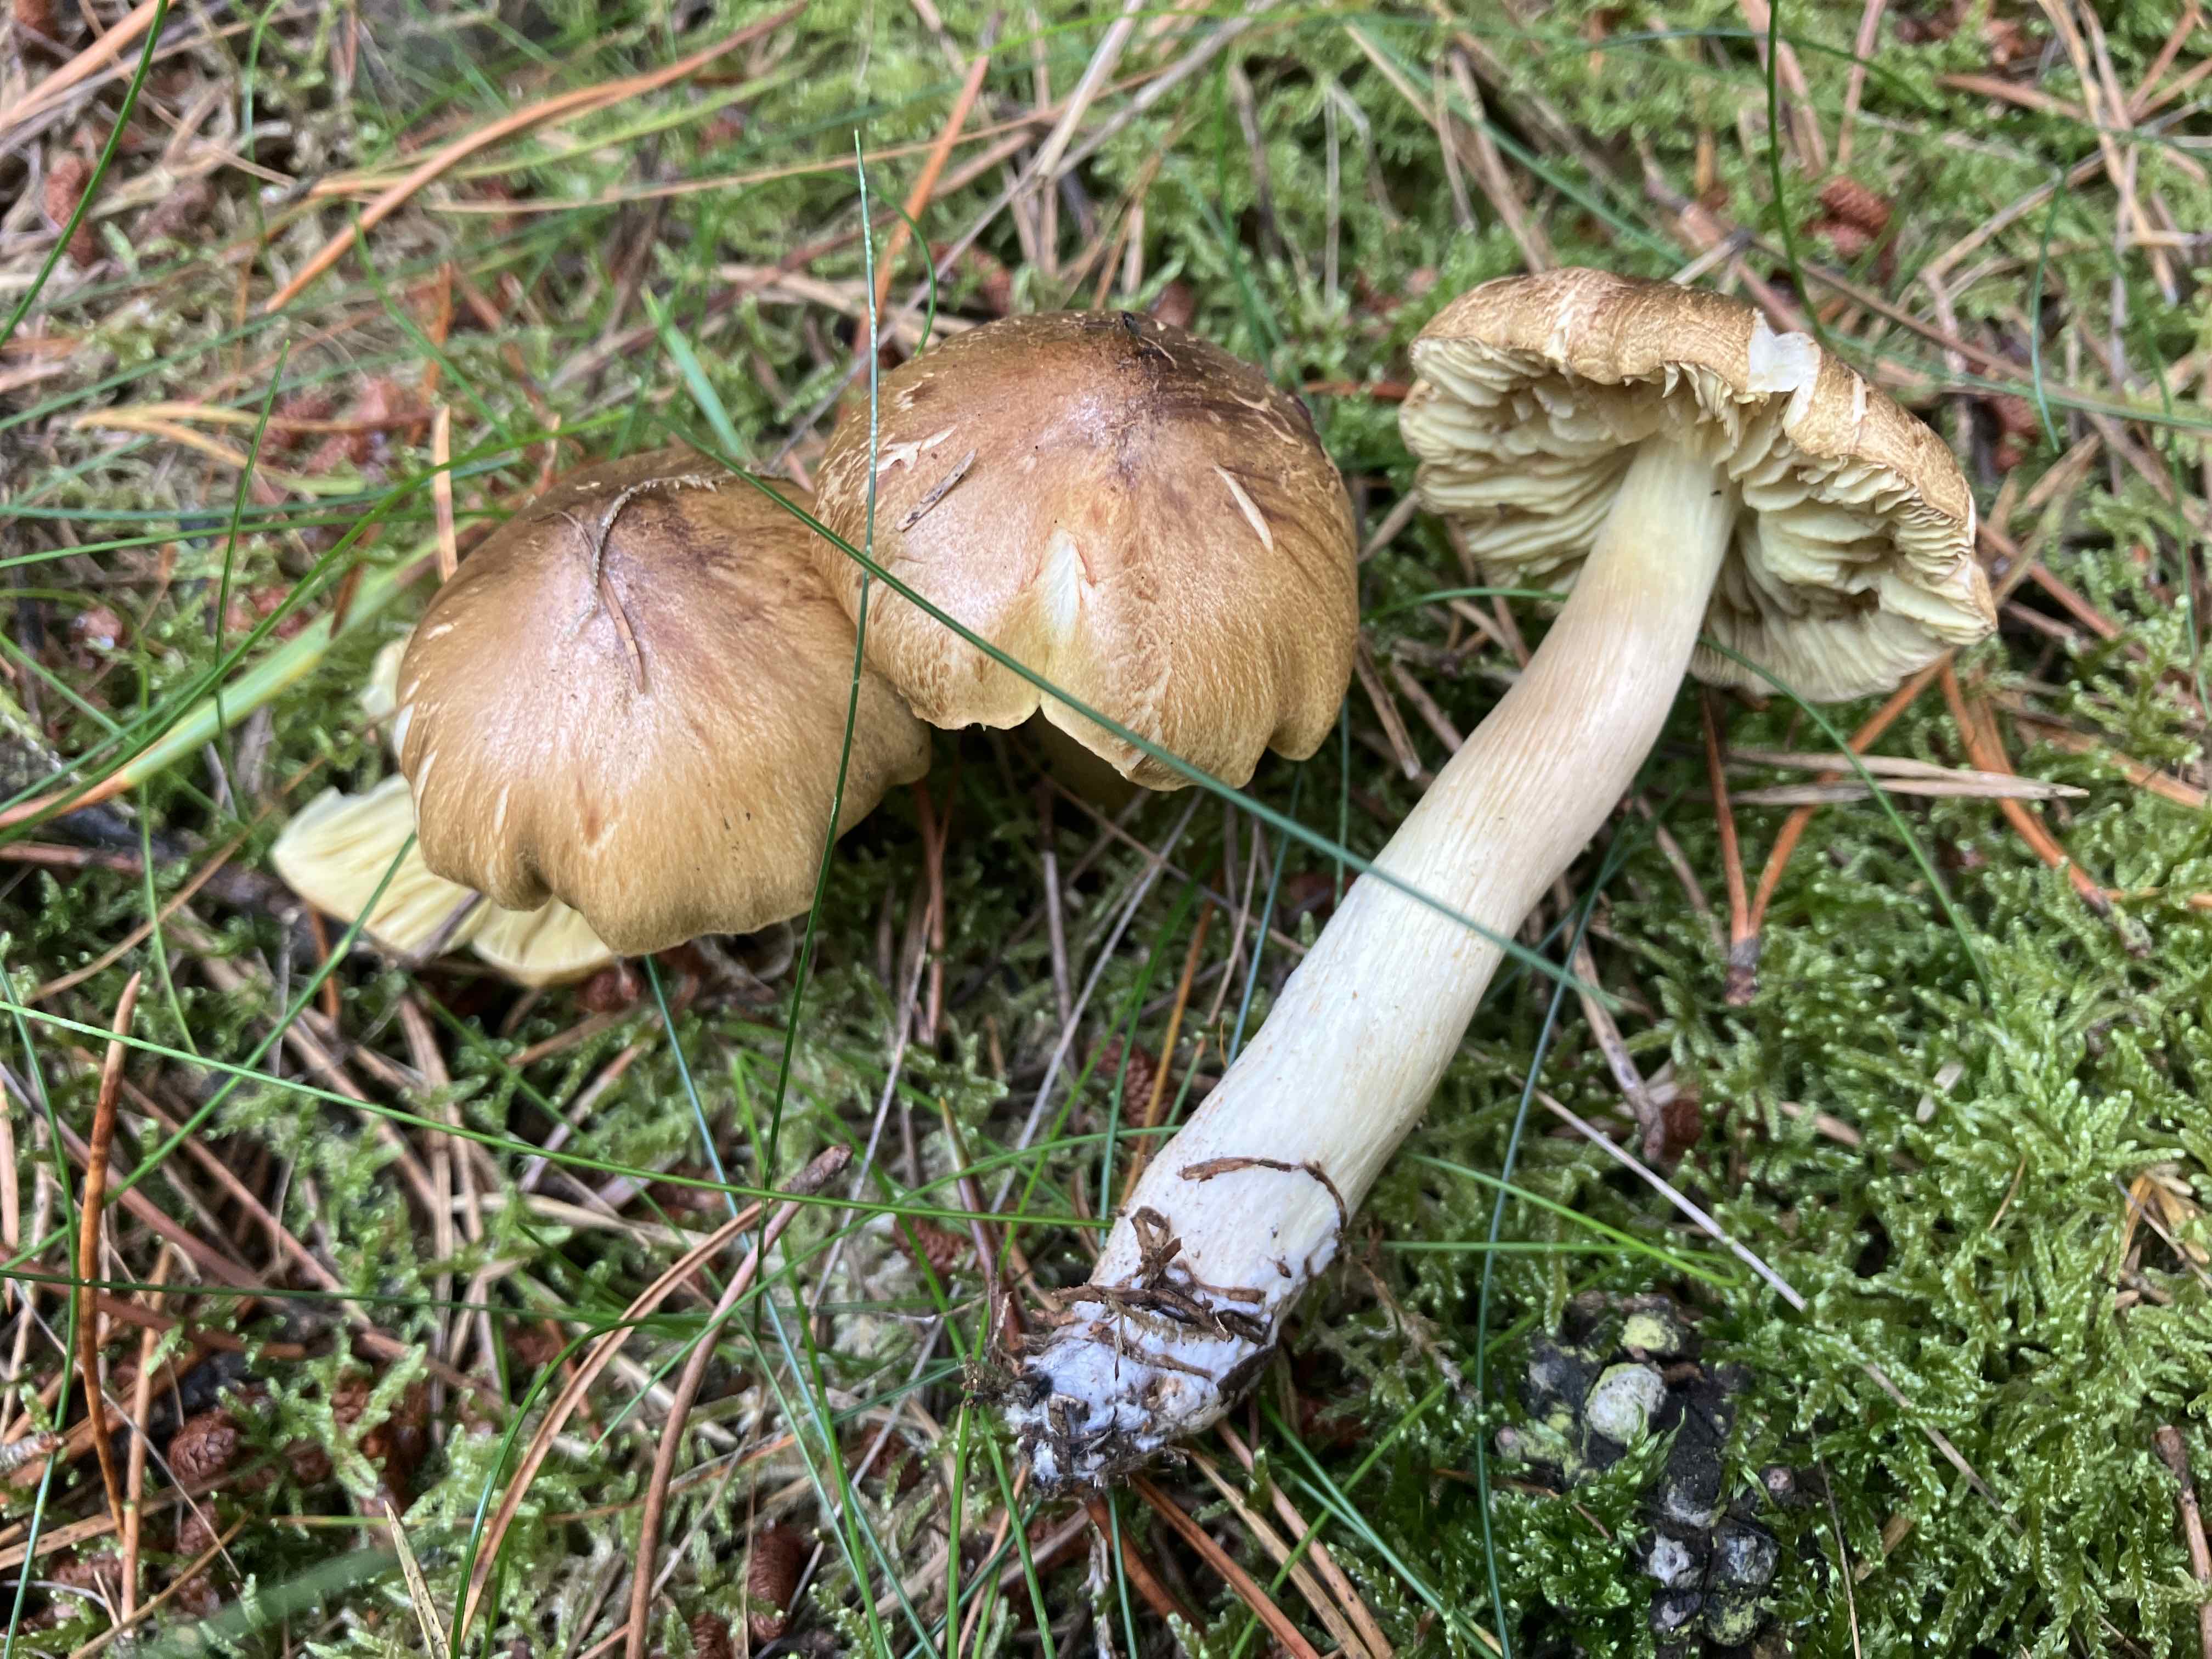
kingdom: Fungi
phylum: Basidiomycota
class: Agaricomycetes
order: Agaricales
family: Tricholomataceae
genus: Tricholoma
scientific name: Tricholoma aestuans
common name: kegle-ridderhat
